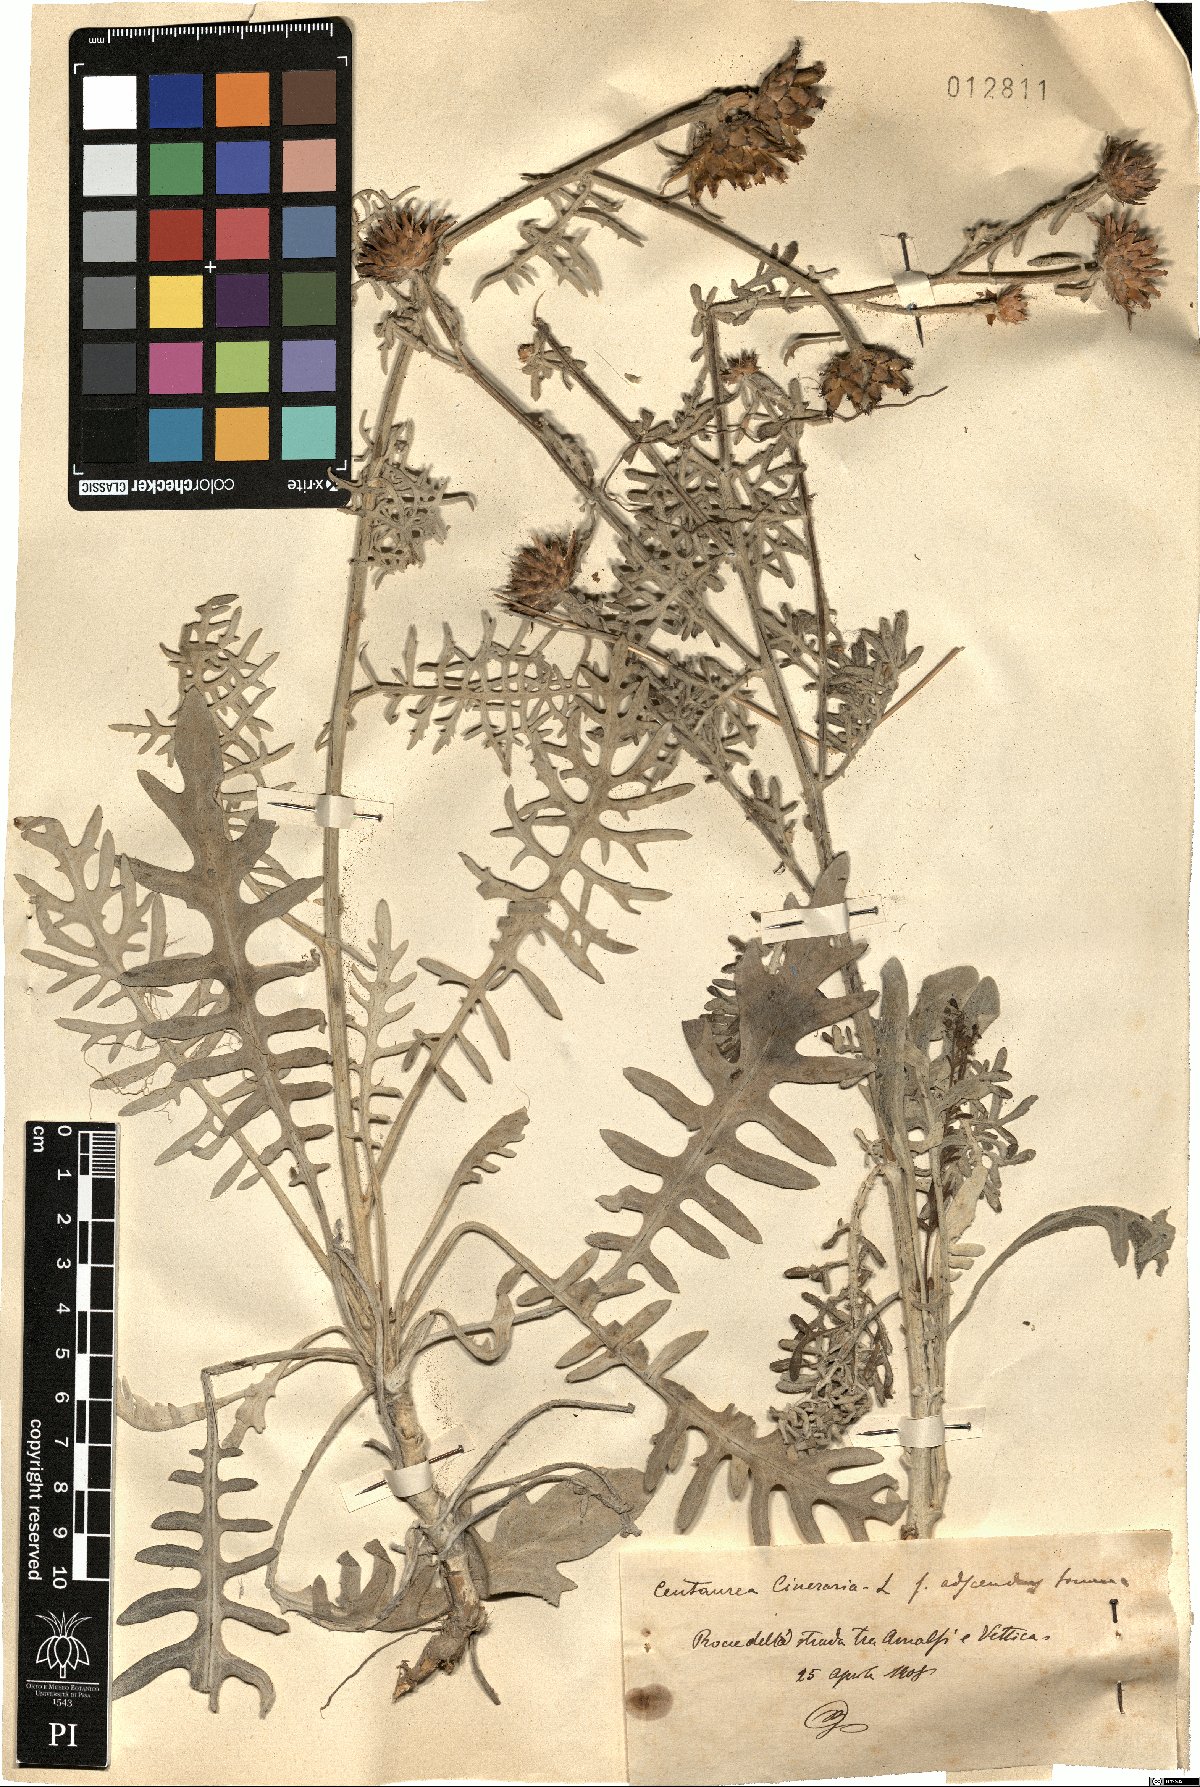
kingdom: Plantae
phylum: Tracheophyta
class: Magnoliopsida
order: Asterales
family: Asteraceae
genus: Centaurea
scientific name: Centaurea cineraria
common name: Dusty miller
